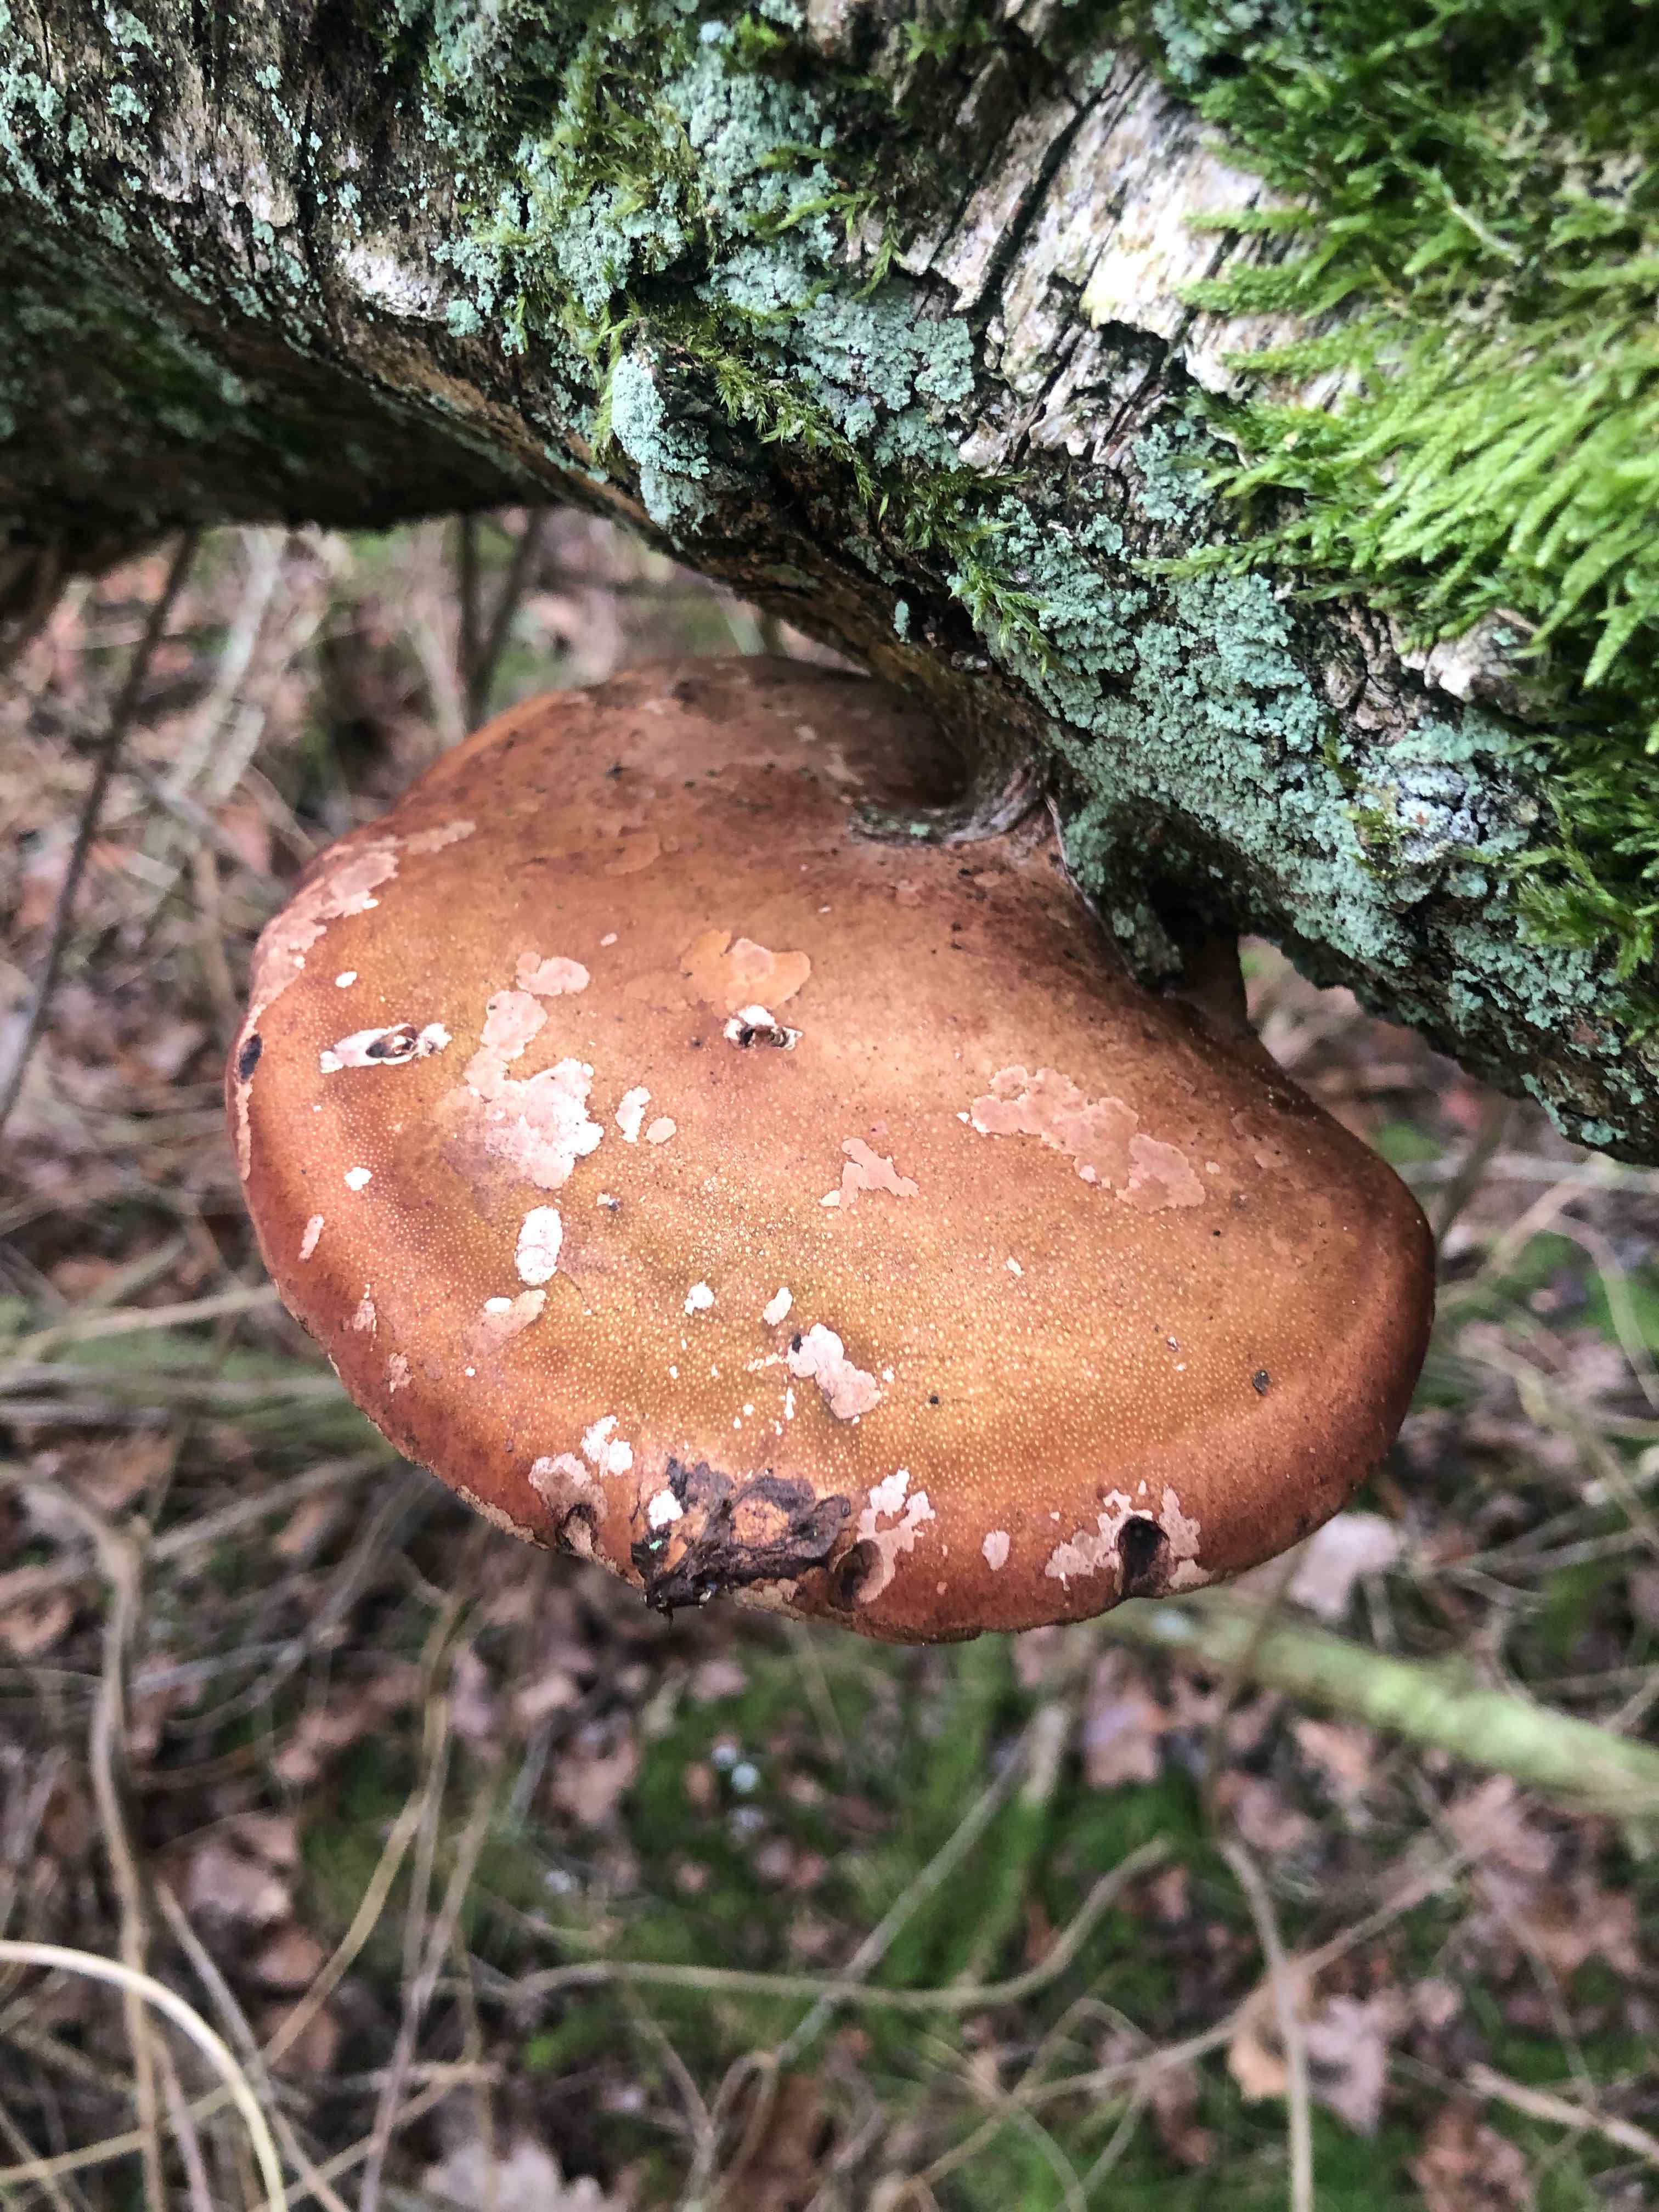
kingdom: Fungi
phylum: Basidiomycota
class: Agaricomycetes
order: Polyporales
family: Fomitopsidaceae
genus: Fomitopsis
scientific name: Fomitopsis betulina
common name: birkeporesvamp
